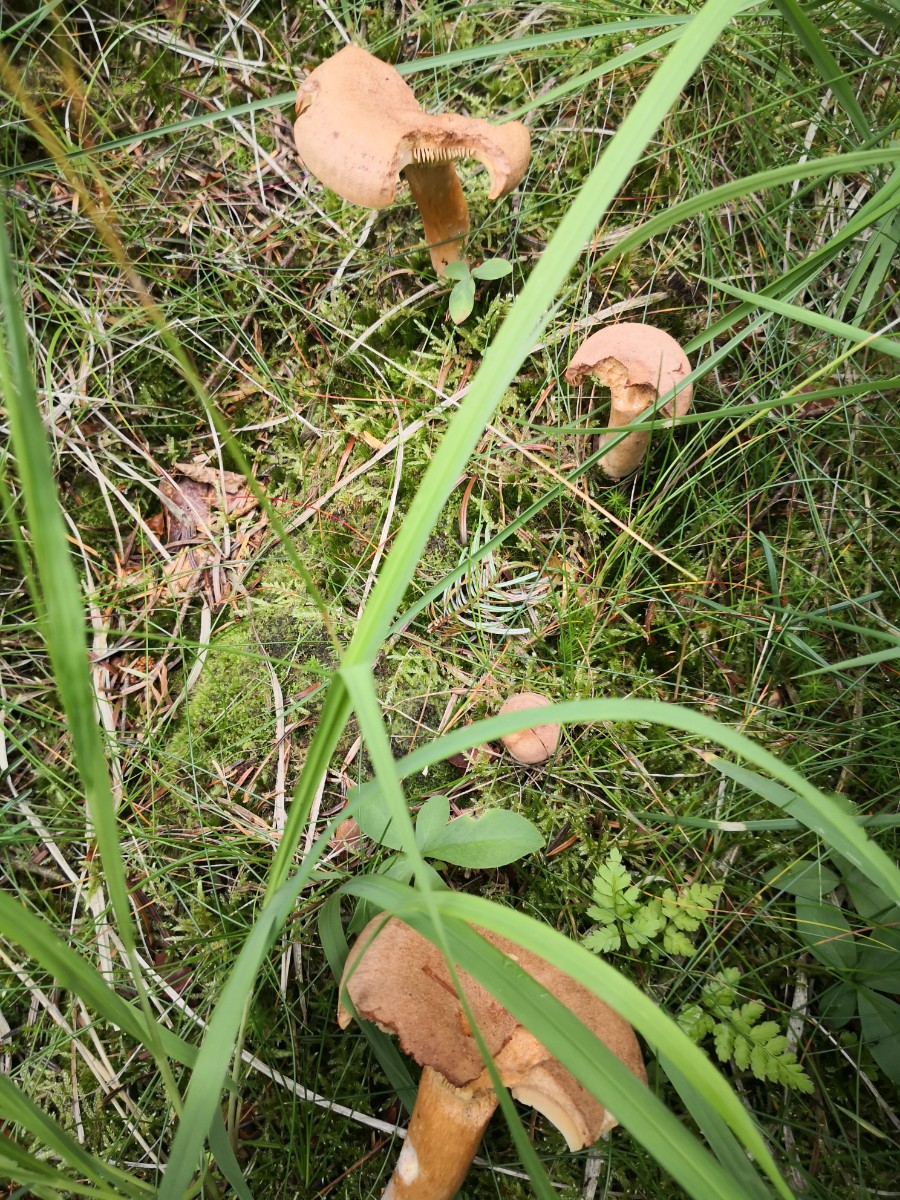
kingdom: Fungi
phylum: Basidiomycota
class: Agaricomycetes
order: Russulales
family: Russulaceae
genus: Lactarius
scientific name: Lactarius helvus
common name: mose-mælkehat
